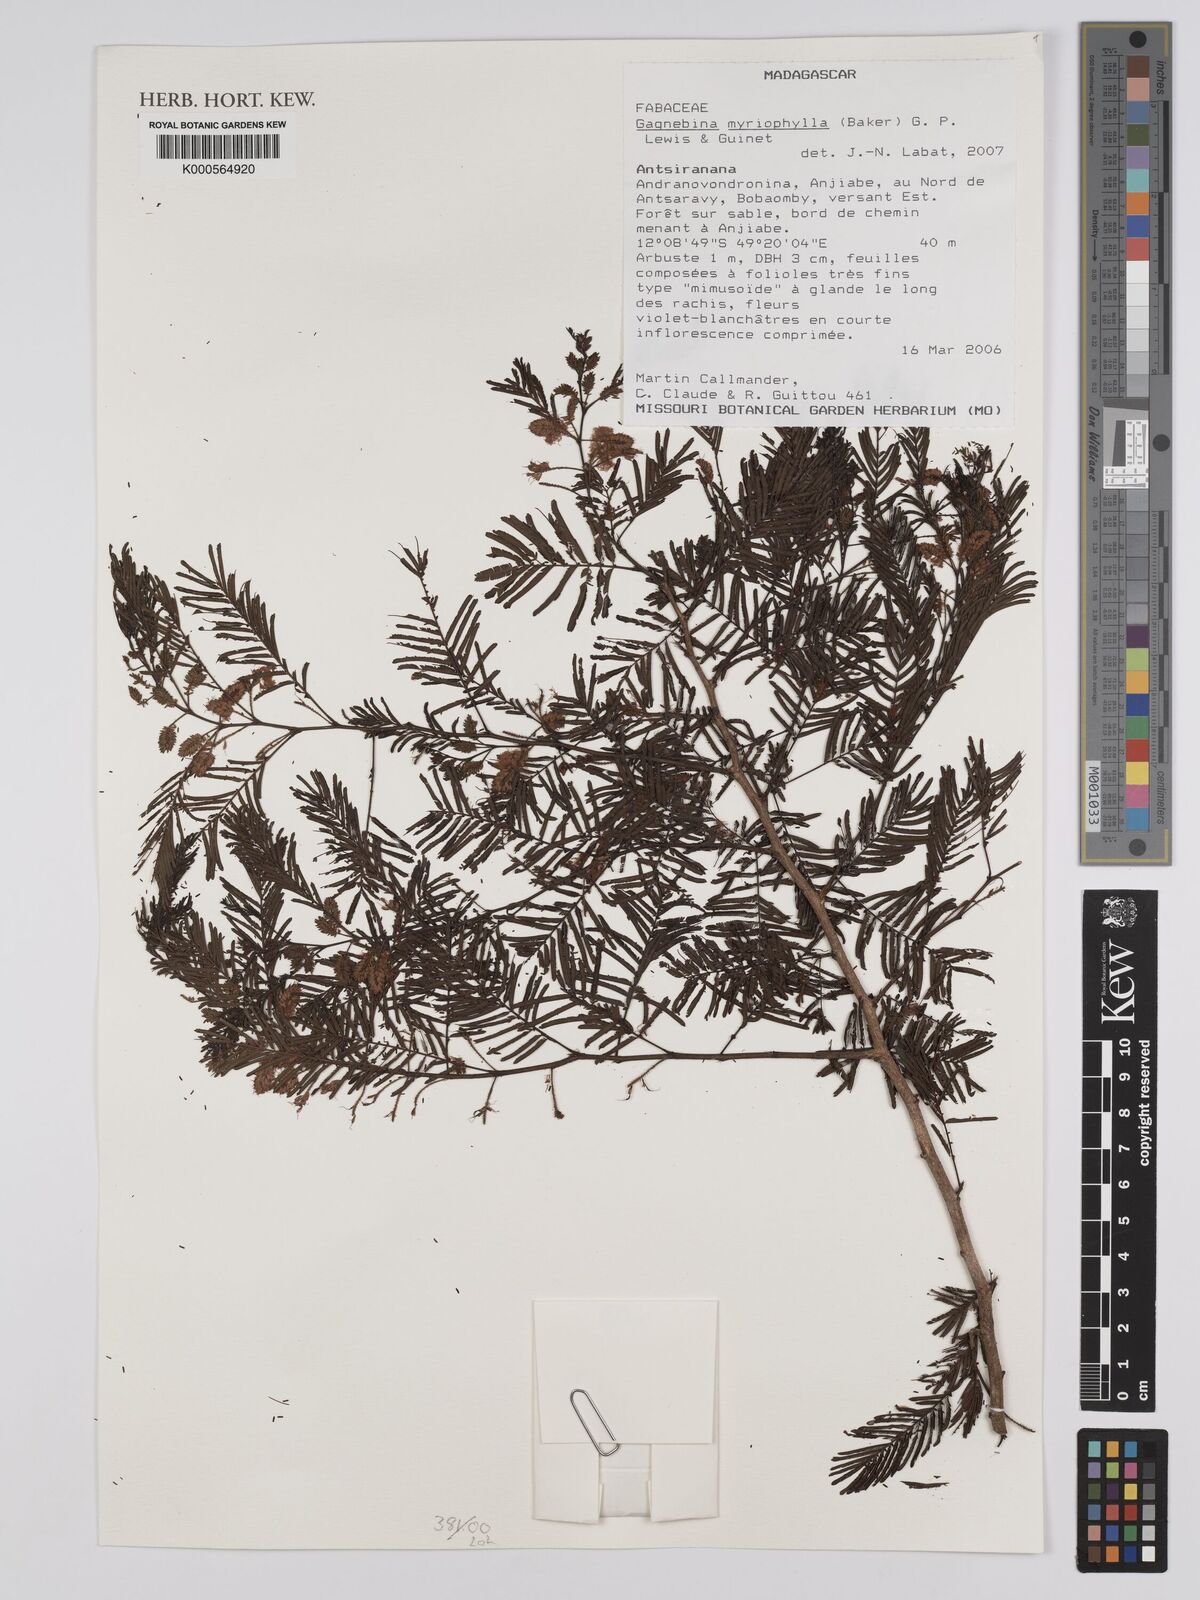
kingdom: Plantae
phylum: Tracheophyta
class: Magnoliopsida
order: Fabales
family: Fabaceae
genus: Dichrostachys
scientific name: Dichrostachys myriophylla
